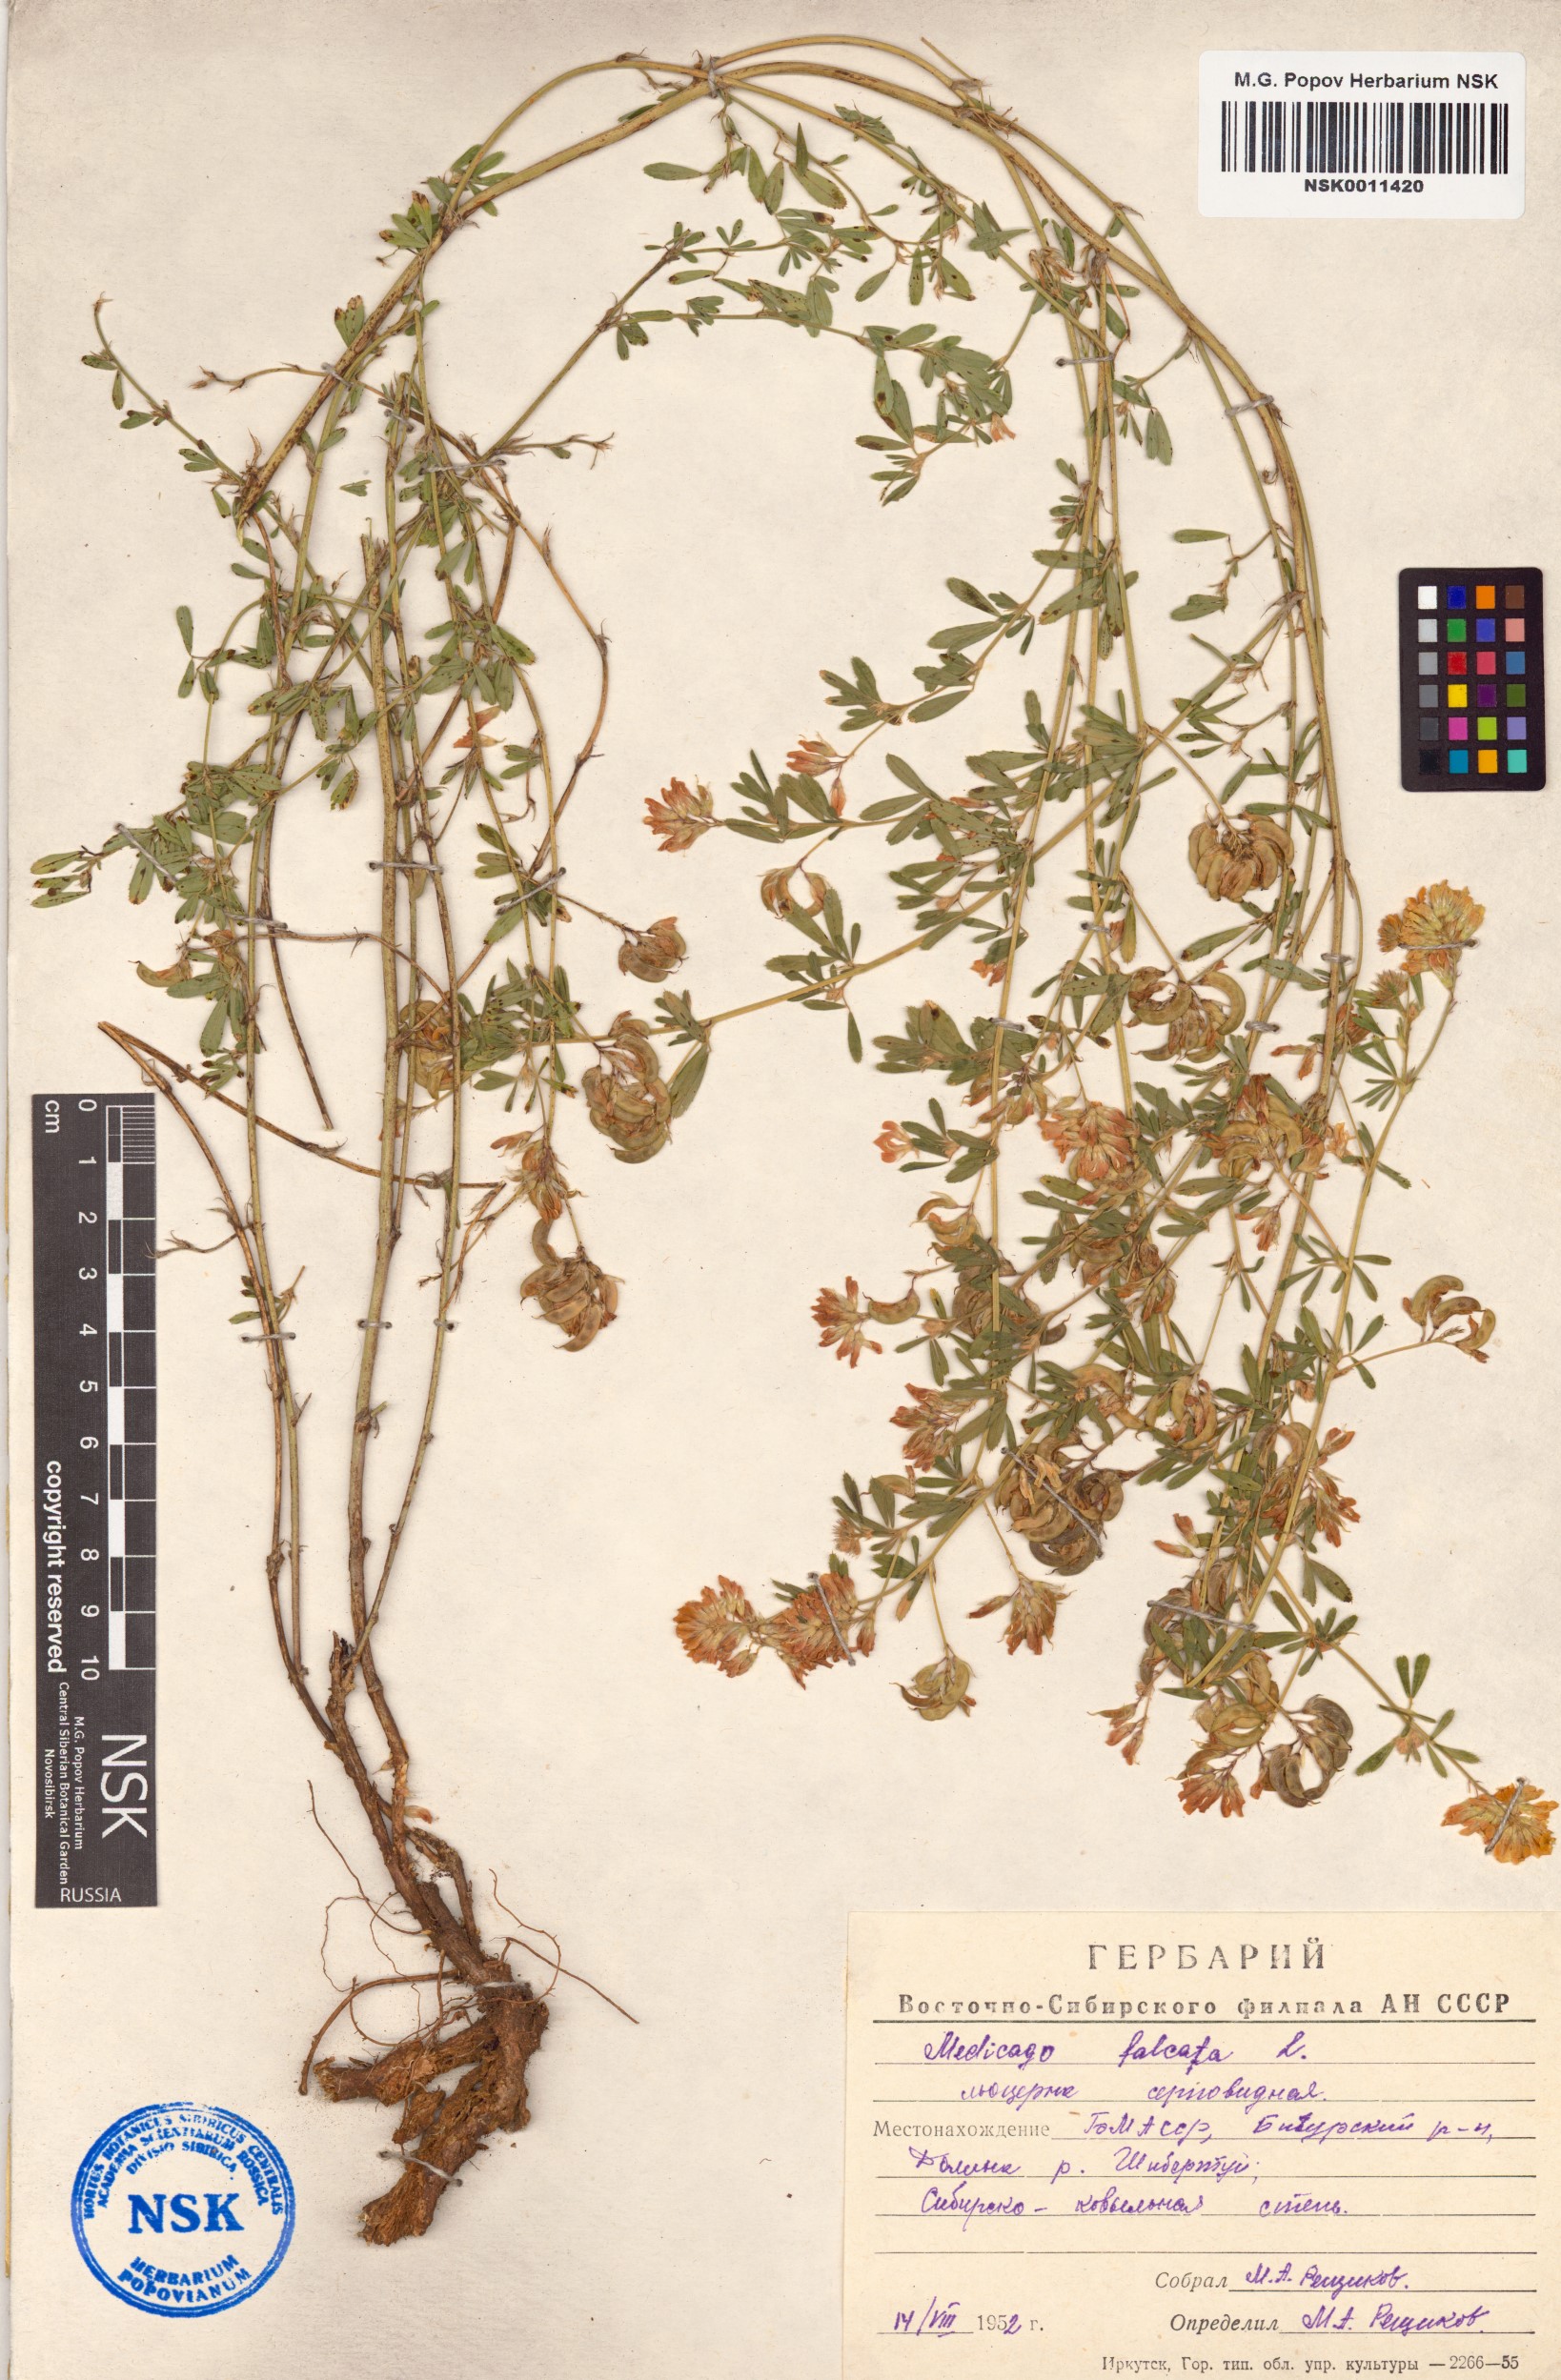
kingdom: Plantae
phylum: Tracheophyta
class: Magnoliopsida
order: Fabales
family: Fabaceae
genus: Medicago
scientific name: Medicago falcata
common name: Sickle medick
